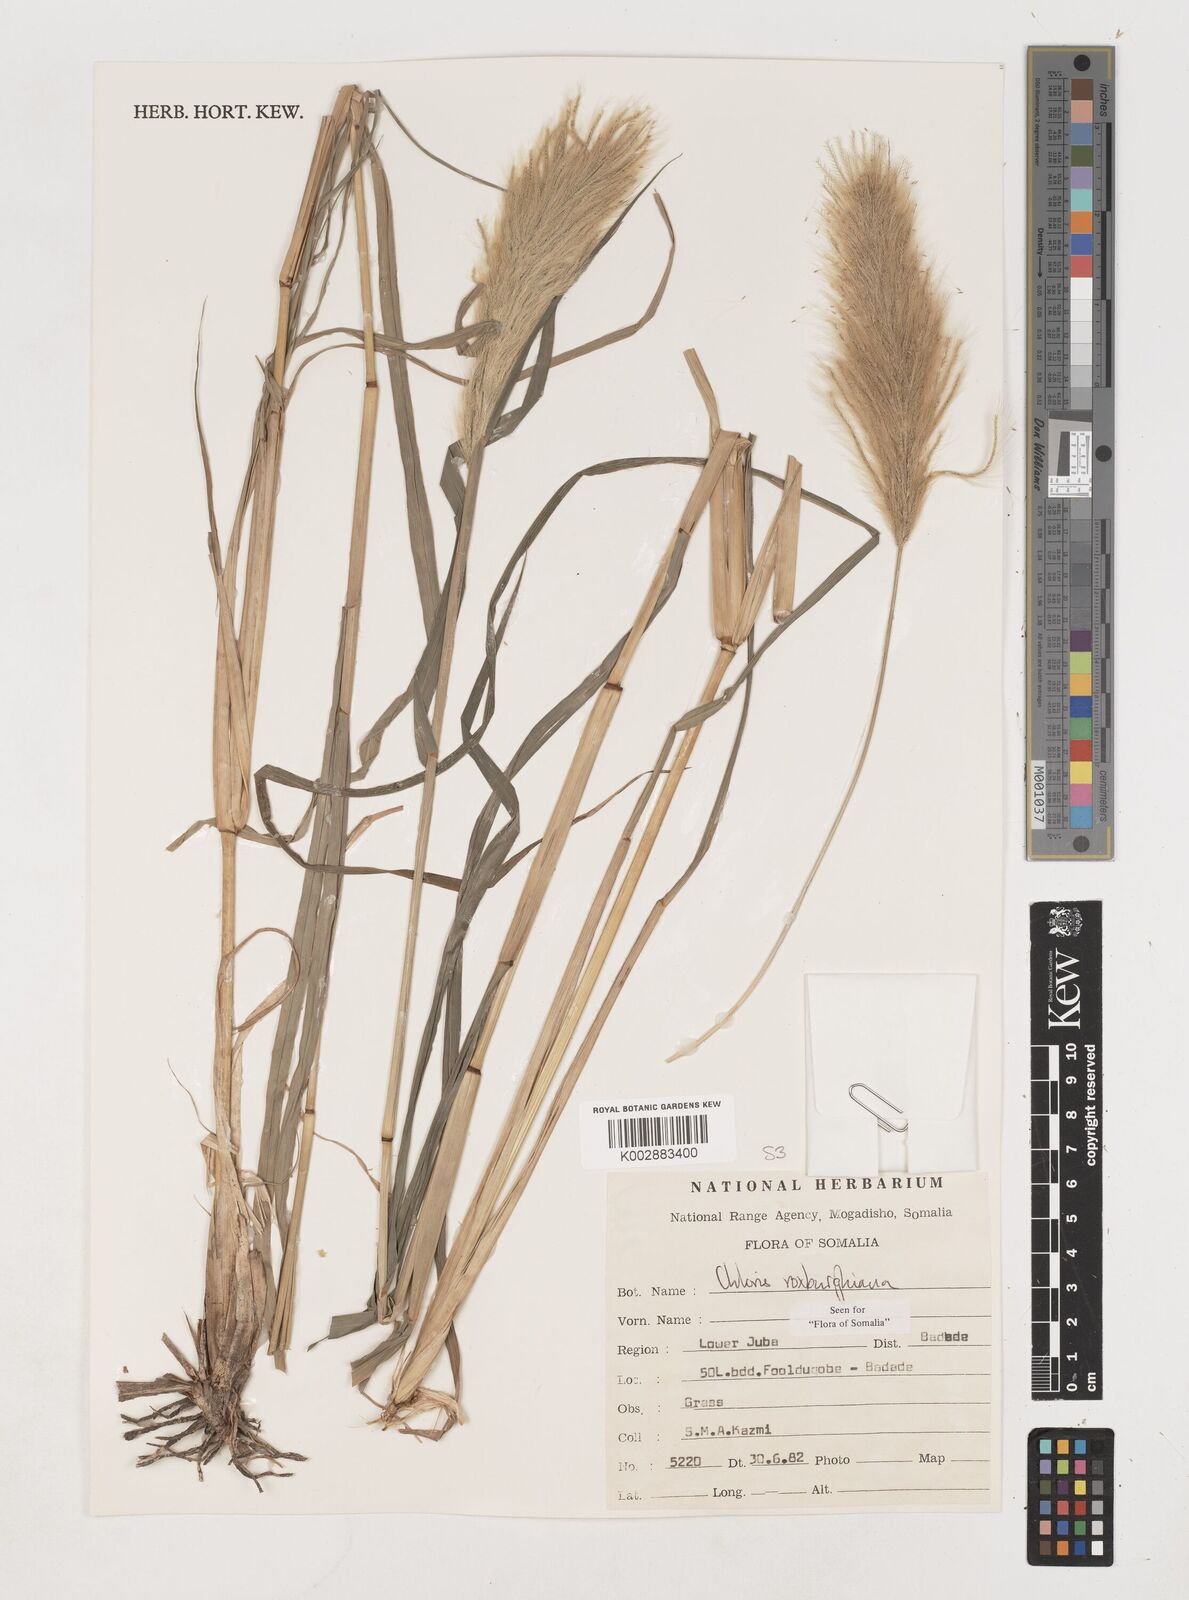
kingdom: Plantae
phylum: Tracheophyta
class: Liliopsida
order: Poales
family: Poaceae
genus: Tetrapogon
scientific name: Tetrapogon roxburghiana
